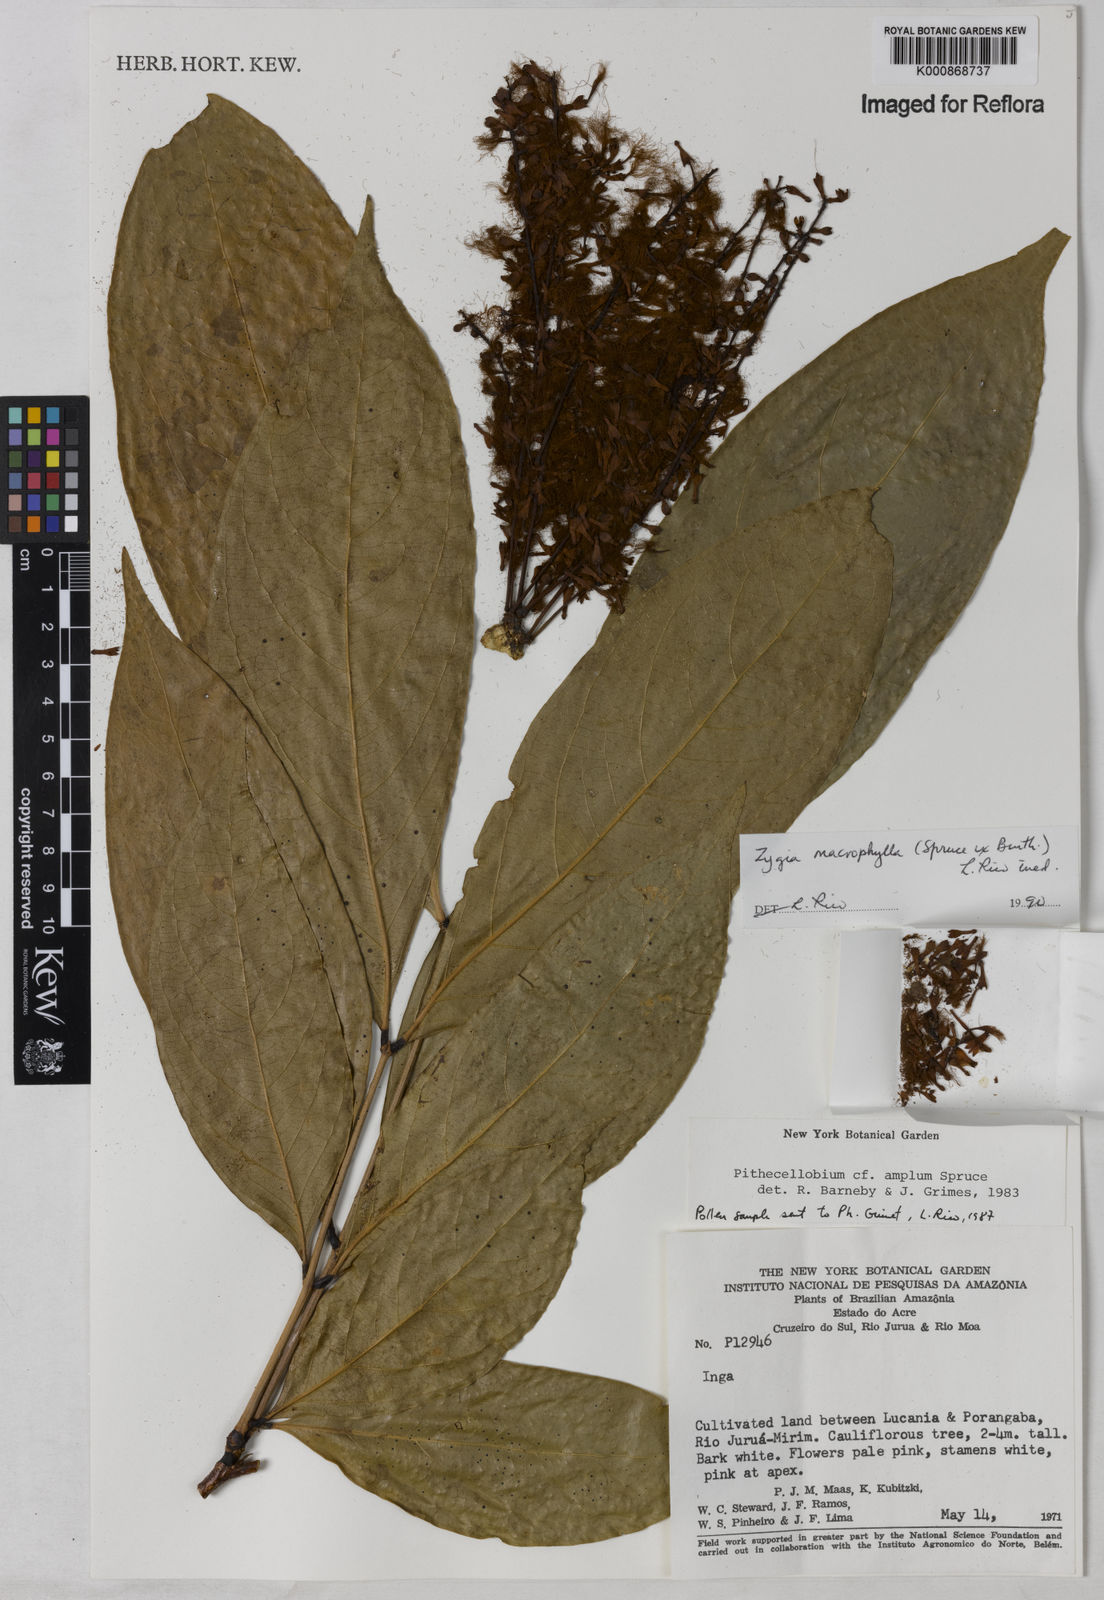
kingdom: Plantae
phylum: Tracheophyta
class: Magnoliopsida
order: Fabales
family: Fabaceae
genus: Zygia
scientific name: Zygia coccinea
